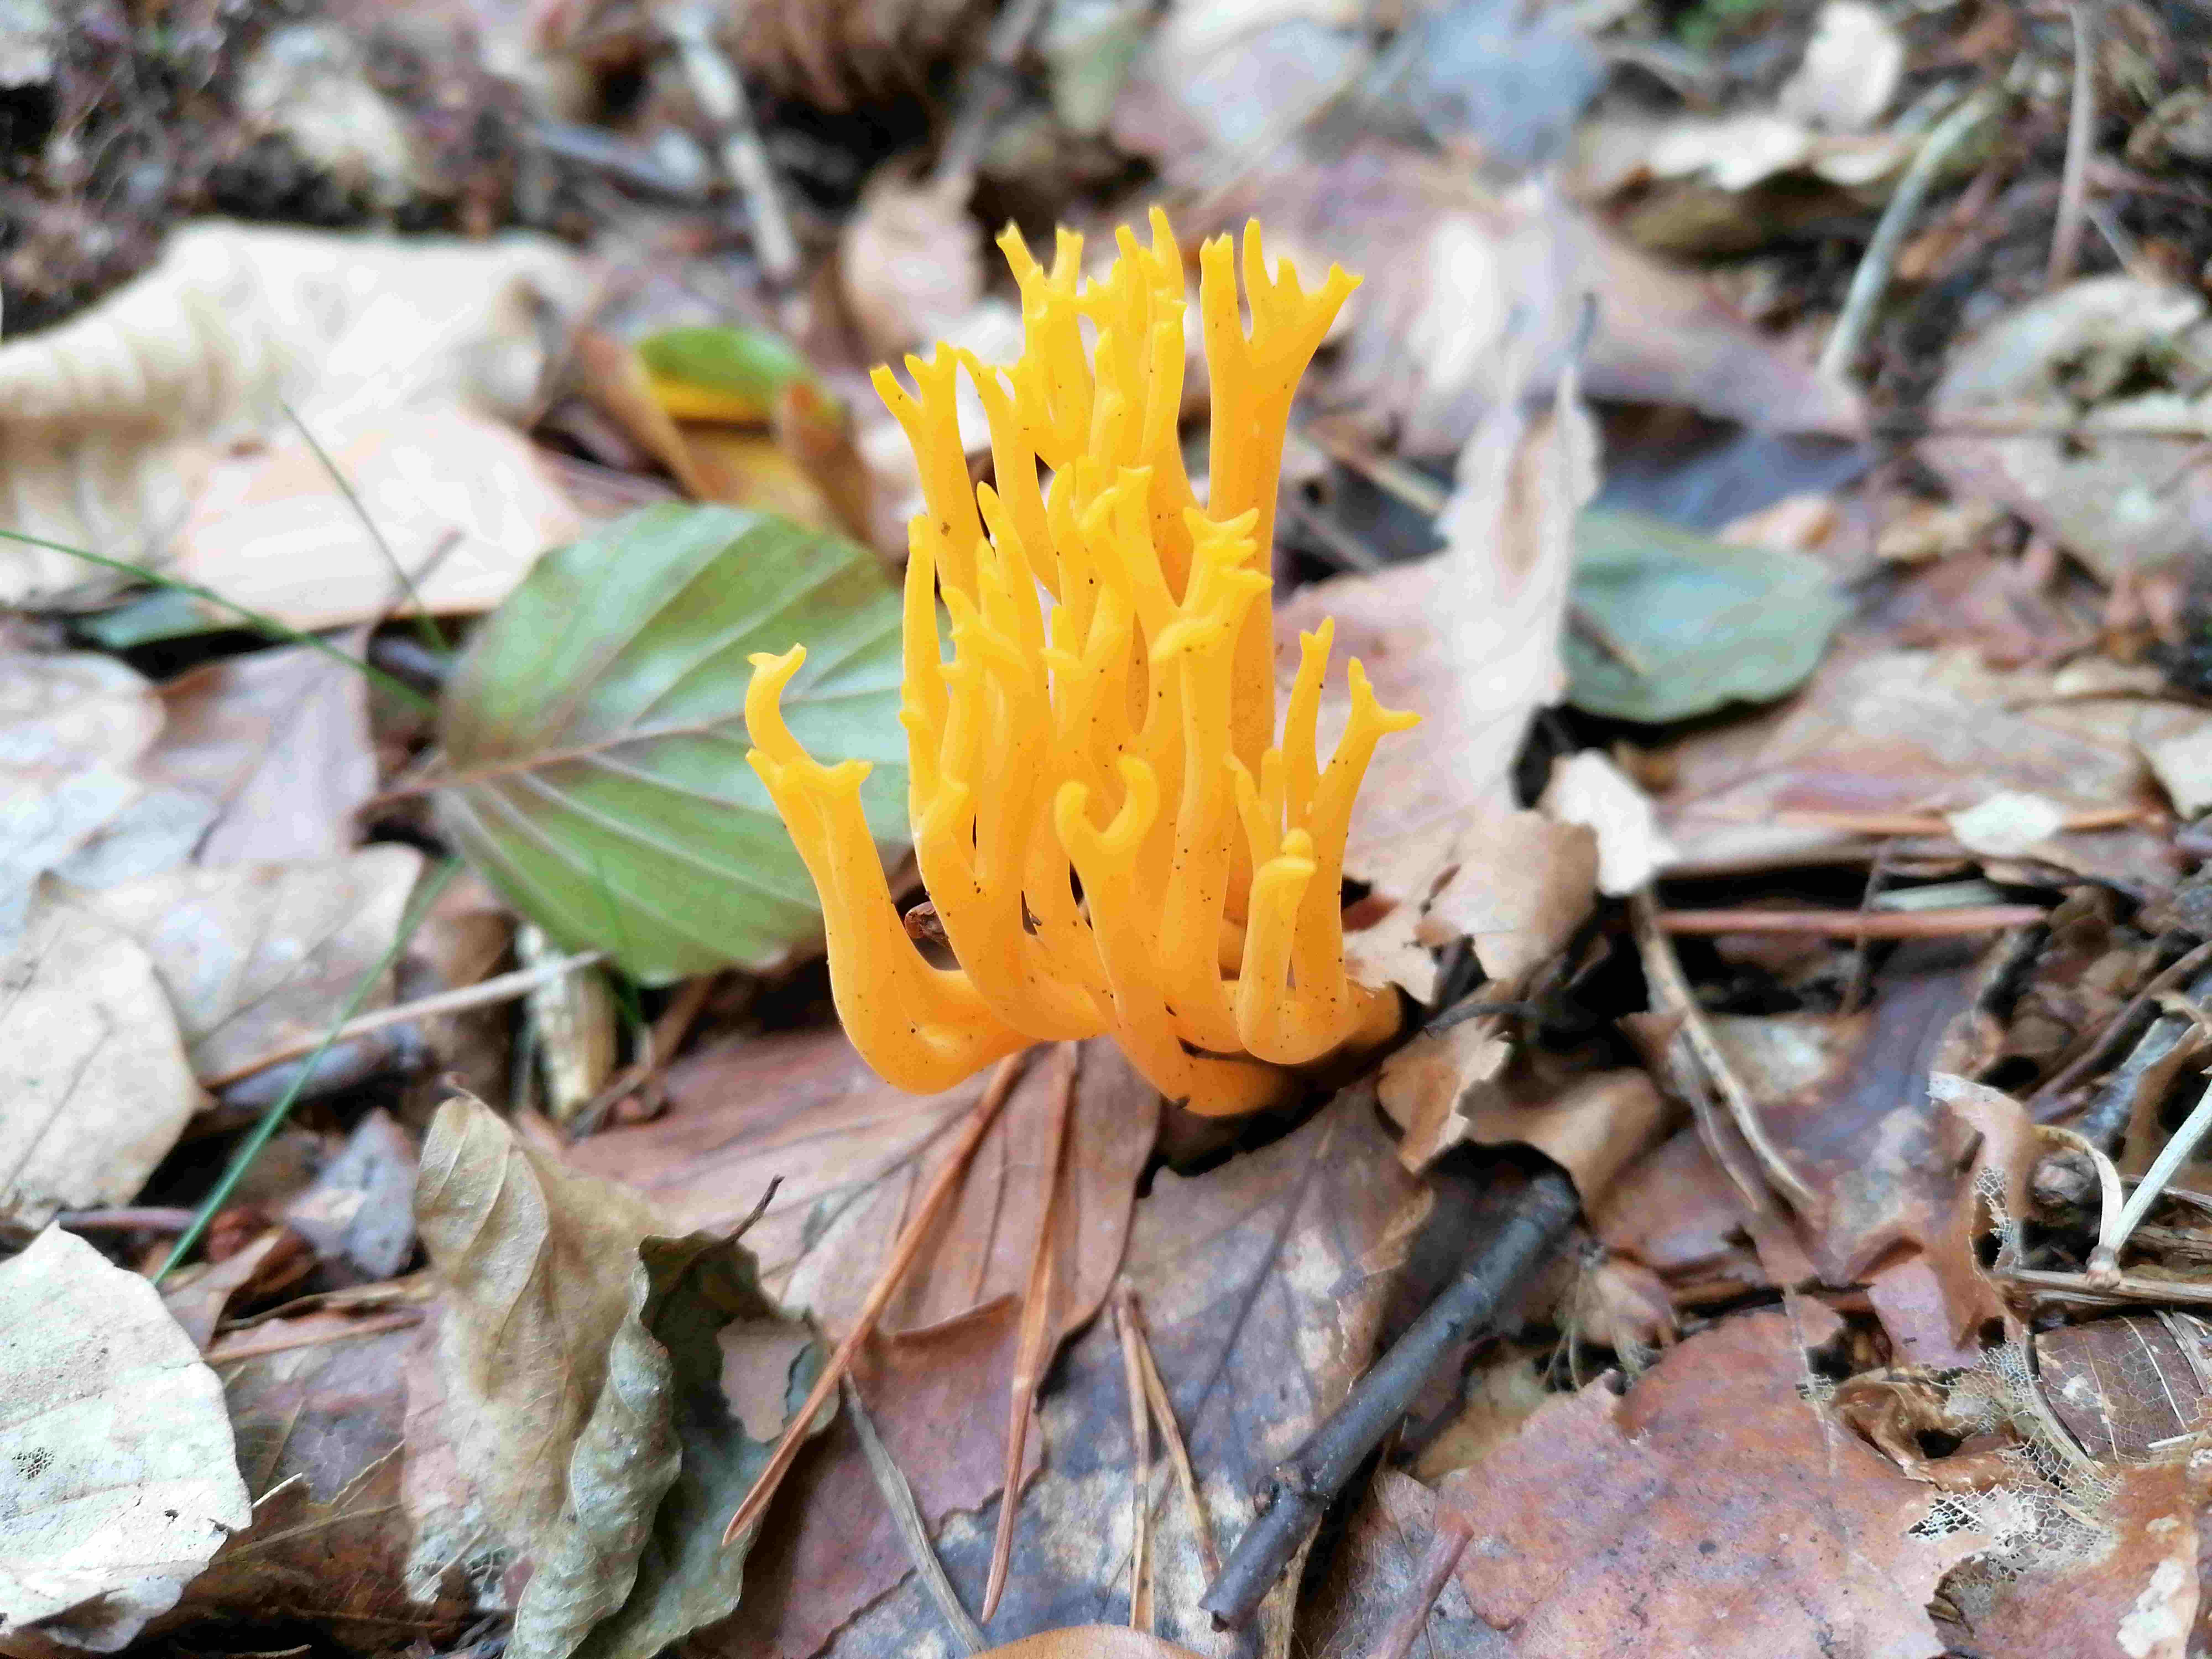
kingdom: Fungi
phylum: Basidiomycota
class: Dacrymycetes
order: Dacrymycetales
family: Dacrymycetaceae
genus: Calocera
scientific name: Calocera viscosa
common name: almindelig guldgaffel
